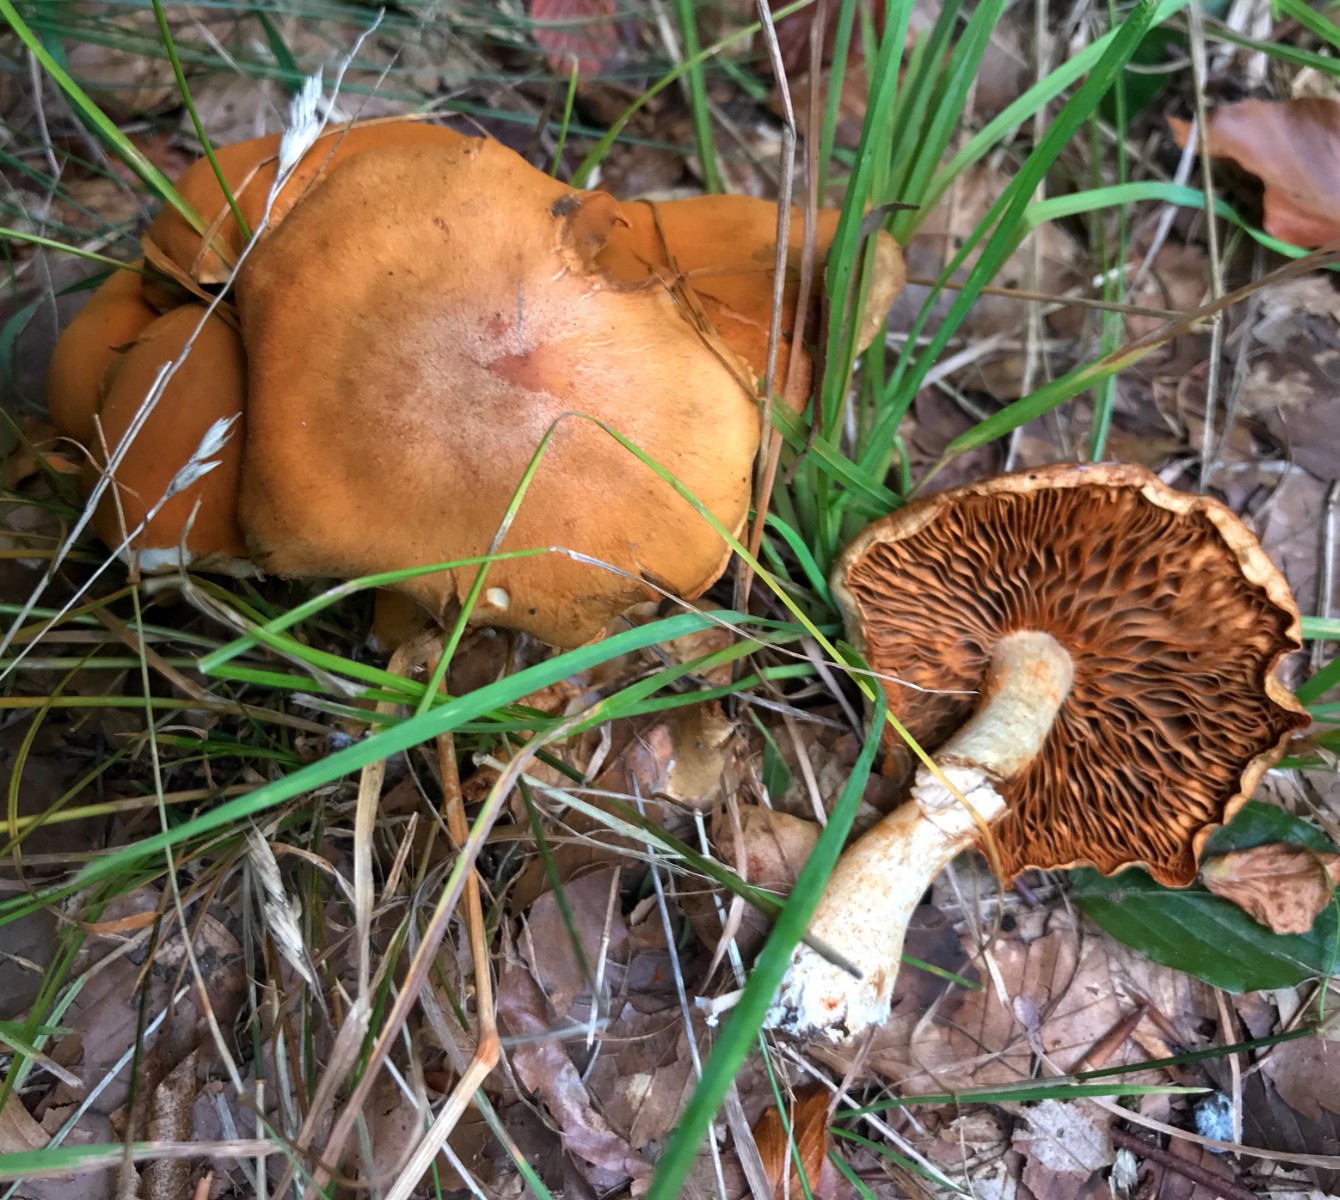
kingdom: Fungi
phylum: Basidiomycota
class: Agaricomycetes
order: Agaricales
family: Hymenogastraceae
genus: Gymnopilus
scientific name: Gymnopilus spectabilis
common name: fibret flammehat
